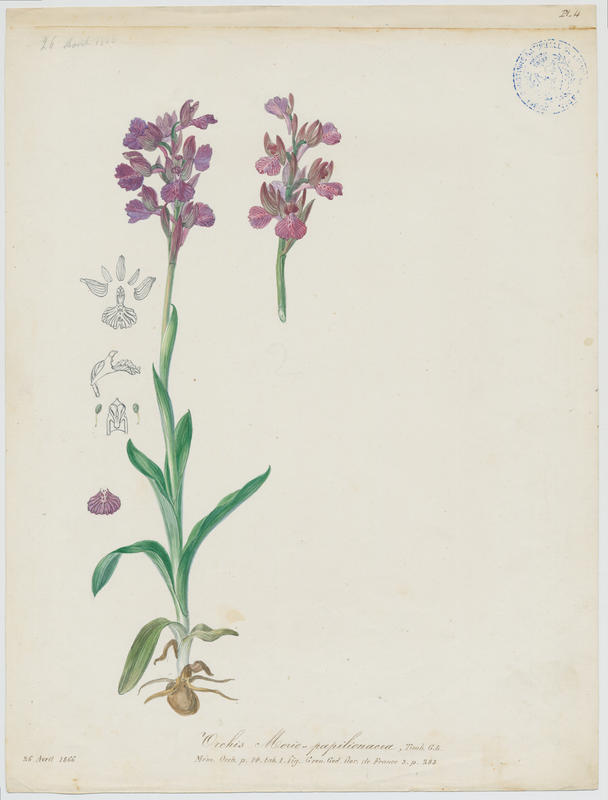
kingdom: Plantae
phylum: Tracheophyta
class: Liliopsida
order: Asparagales
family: Orchidaceae
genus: Anacamptis
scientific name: Anacamptis
